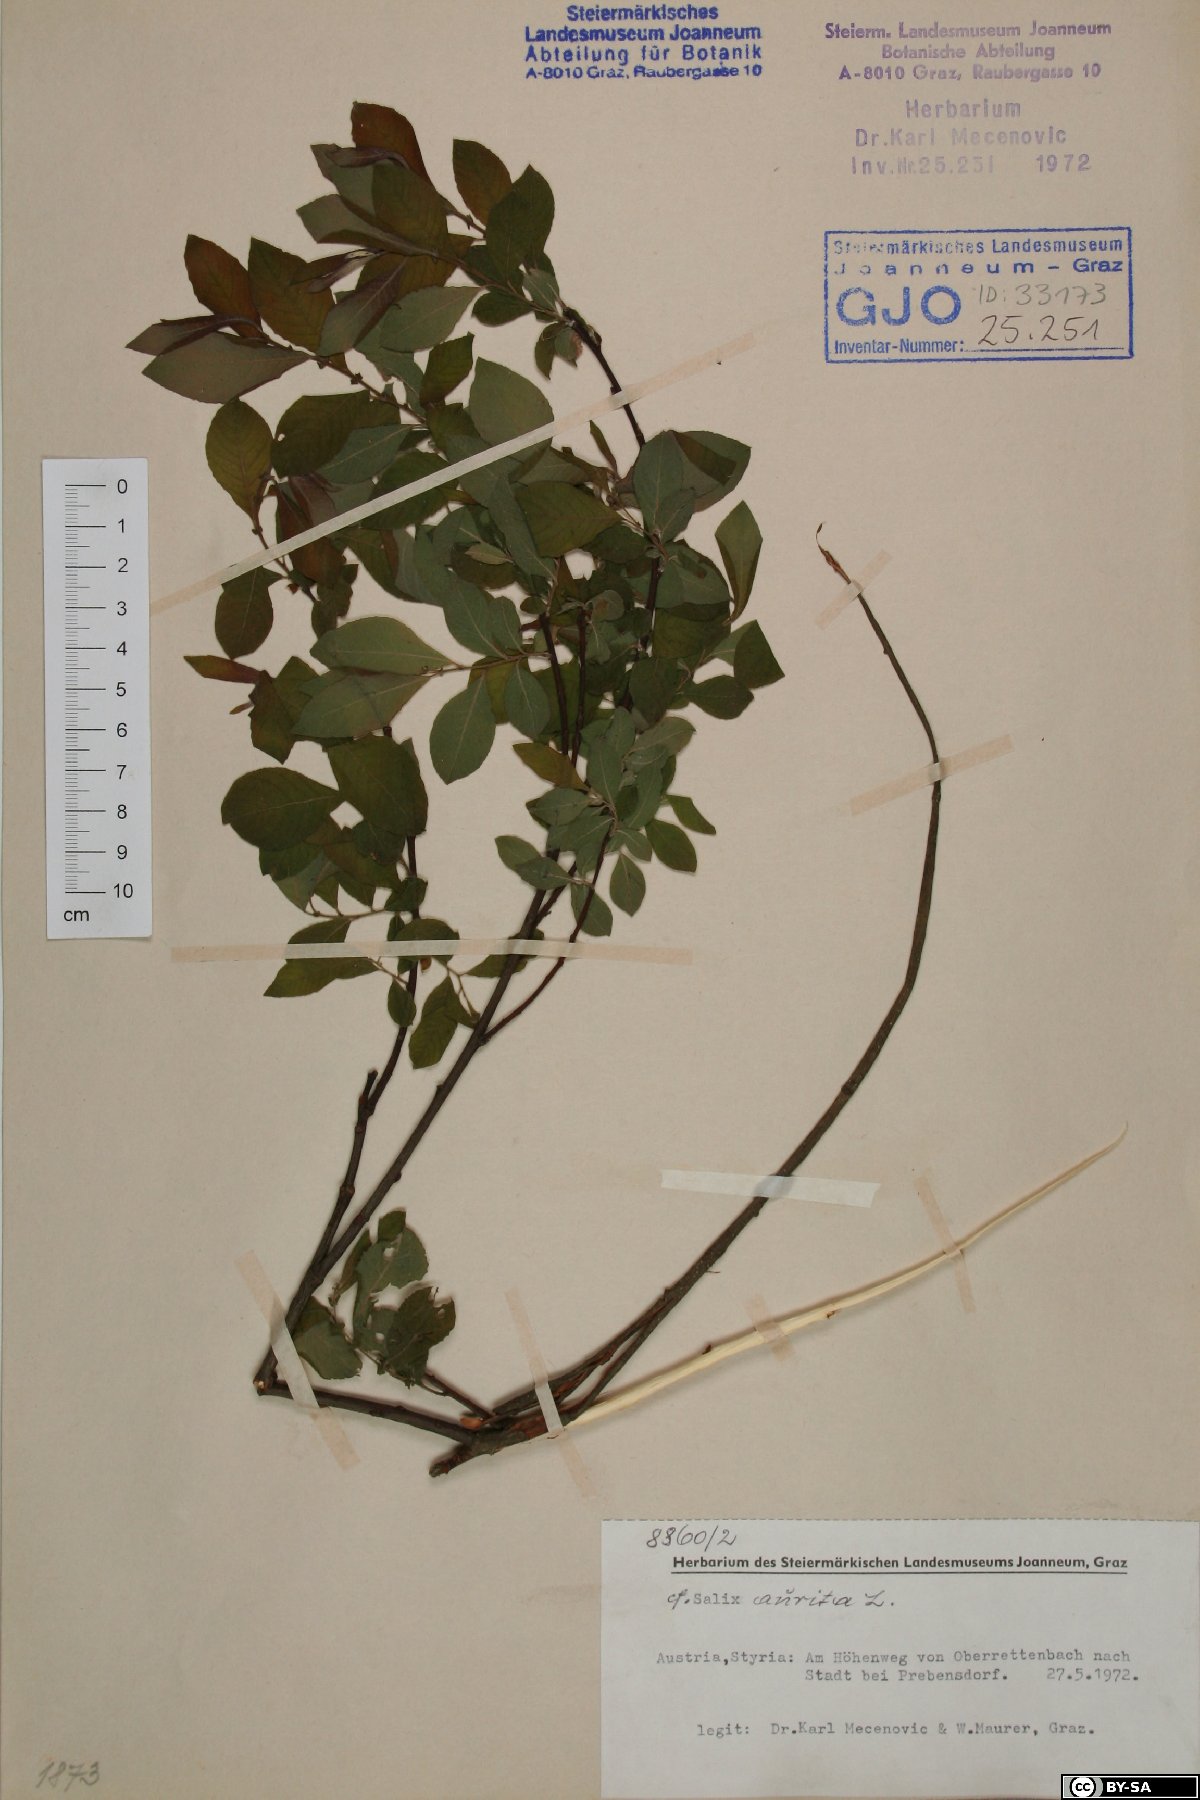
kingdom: Plantae
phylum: Tracheophyta
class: Magnoliopsida
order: Malpighiales
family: Salicaceae
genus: Salix
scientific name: Salix aurita
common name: Eared willow
